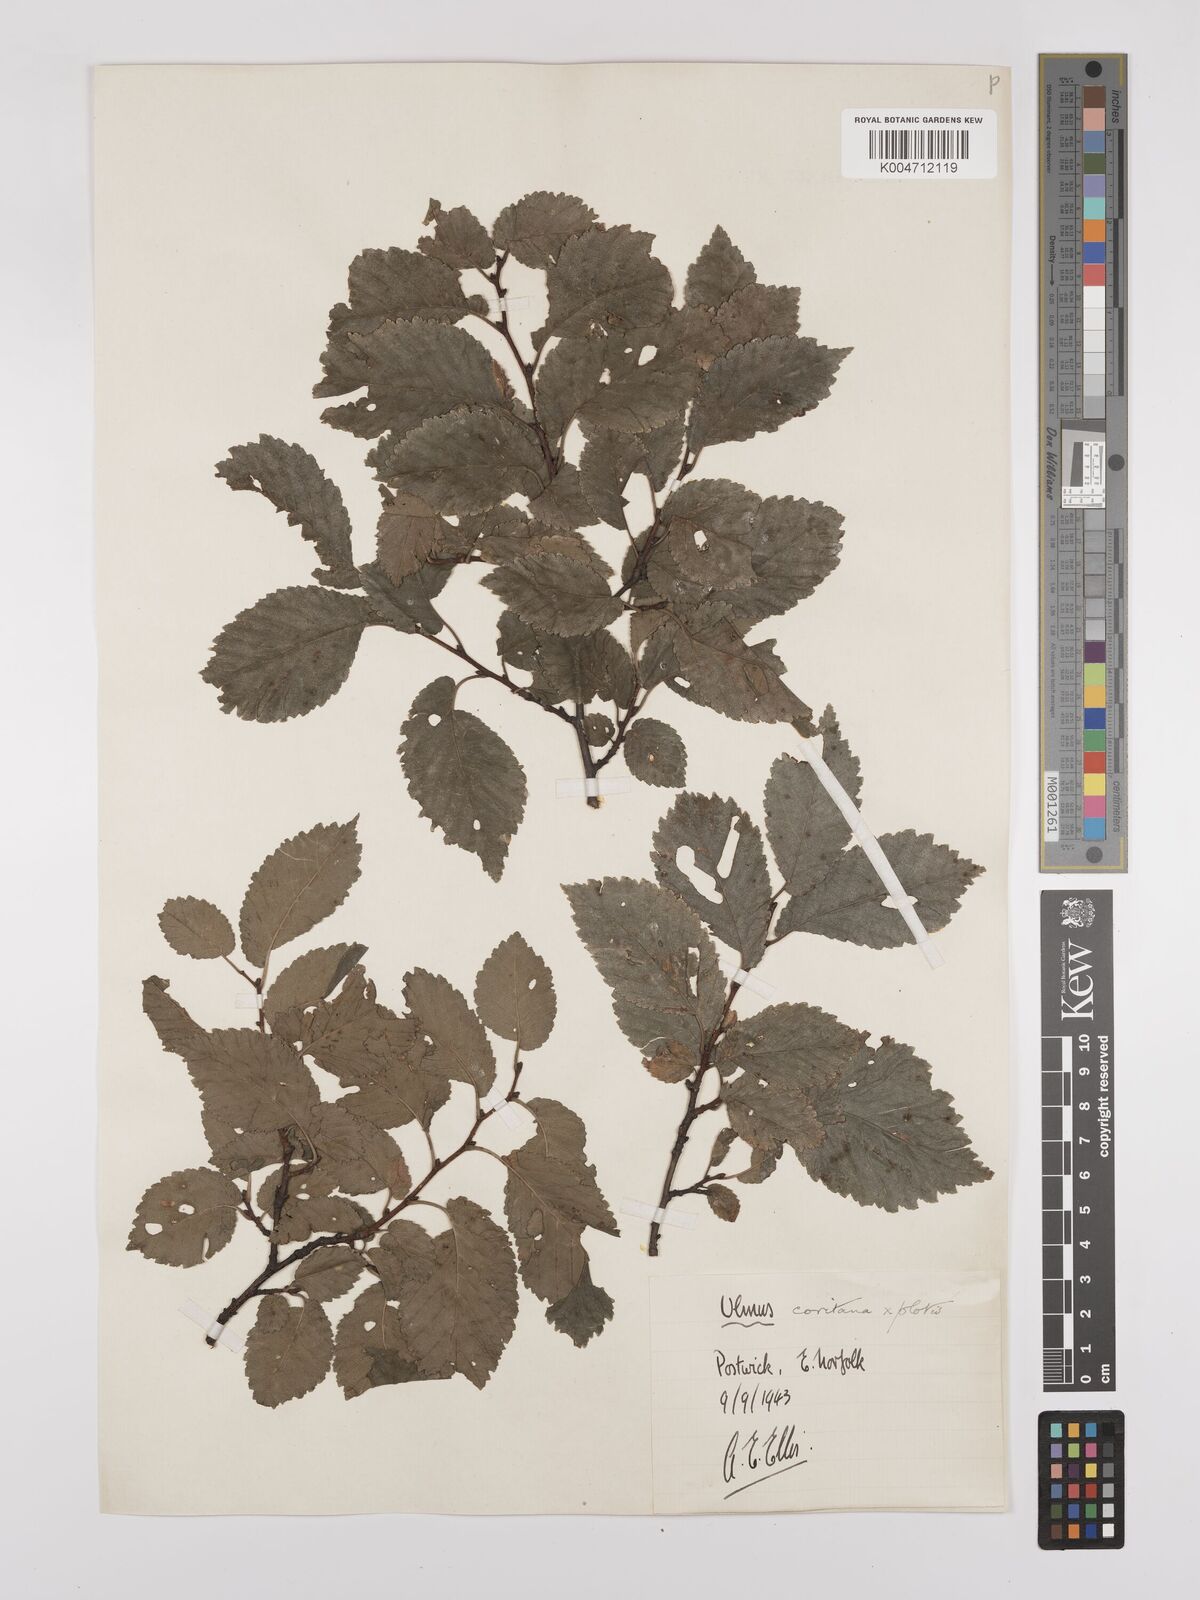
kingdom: Plantae
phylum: Tracheophyta
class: Magnoliopsida
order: Rosales
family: Ulmaceae
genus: Ulmus
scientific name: Ulmus minor
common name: Small-leaved elm
